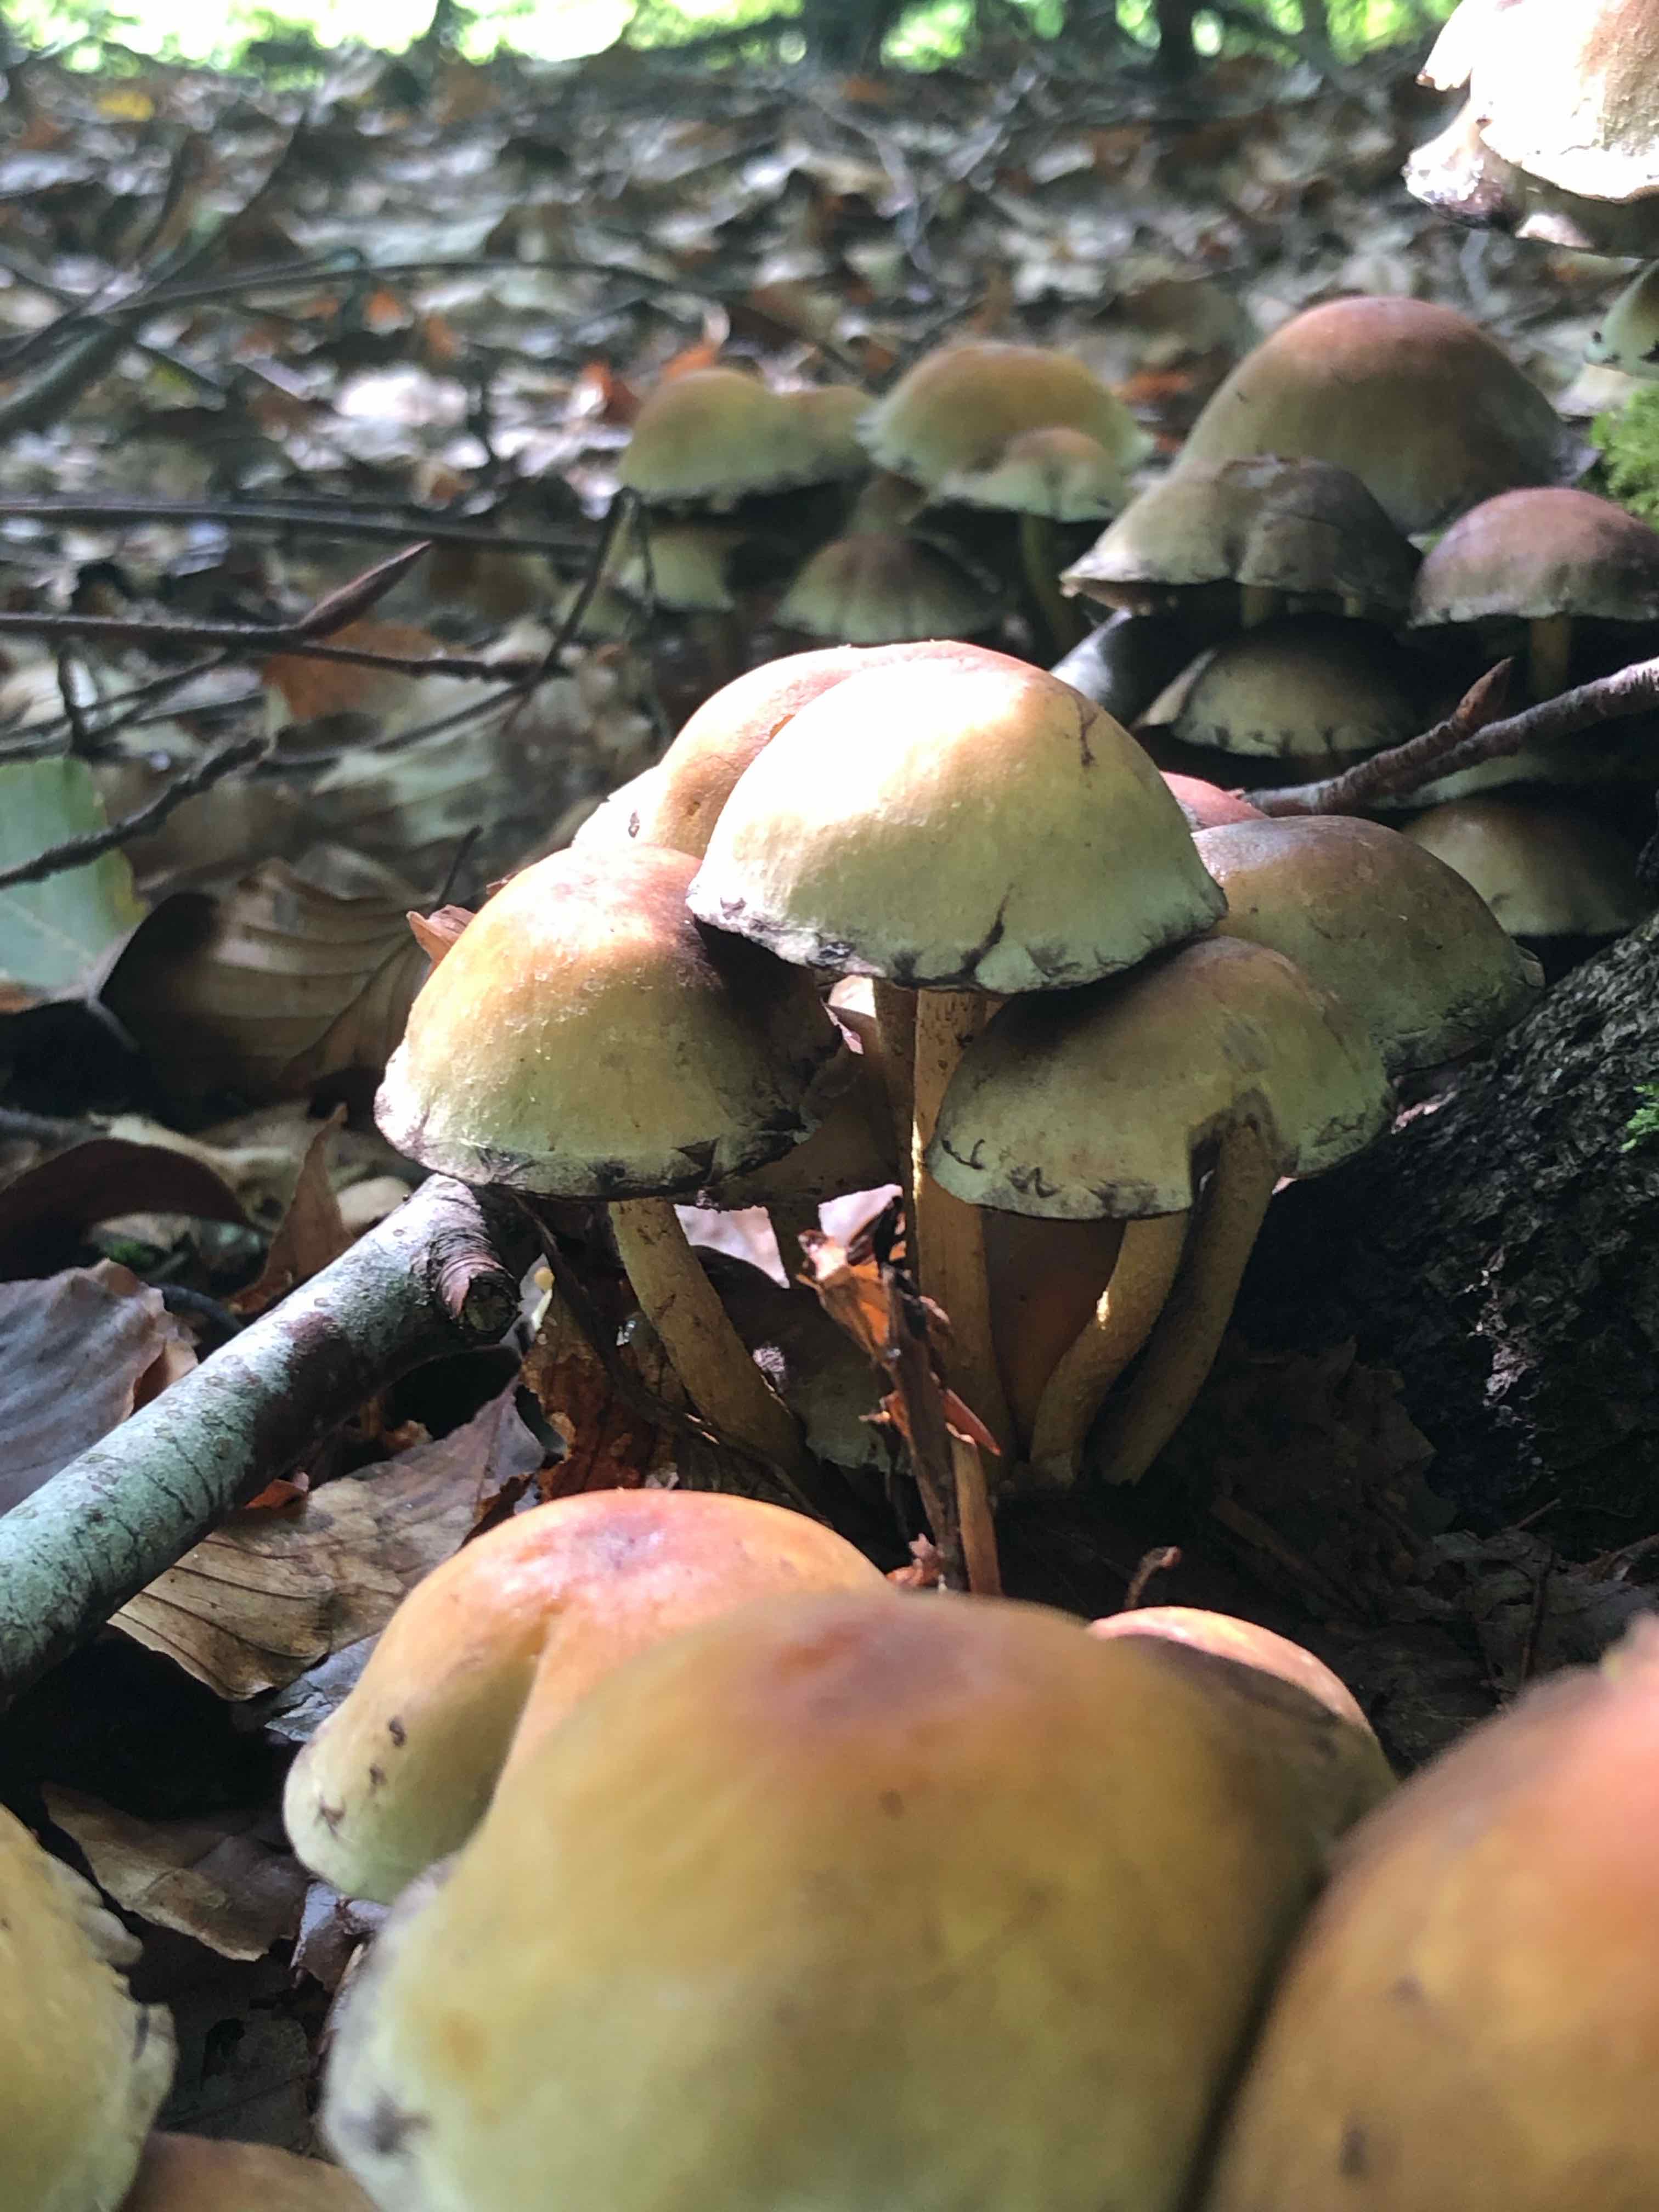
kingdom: Fungi
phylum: Basidiomycota
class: Agaricomycetes
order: Agaricales
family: Strophariaceae
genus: Hypholoma
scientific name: Hypholoma fasciculare
